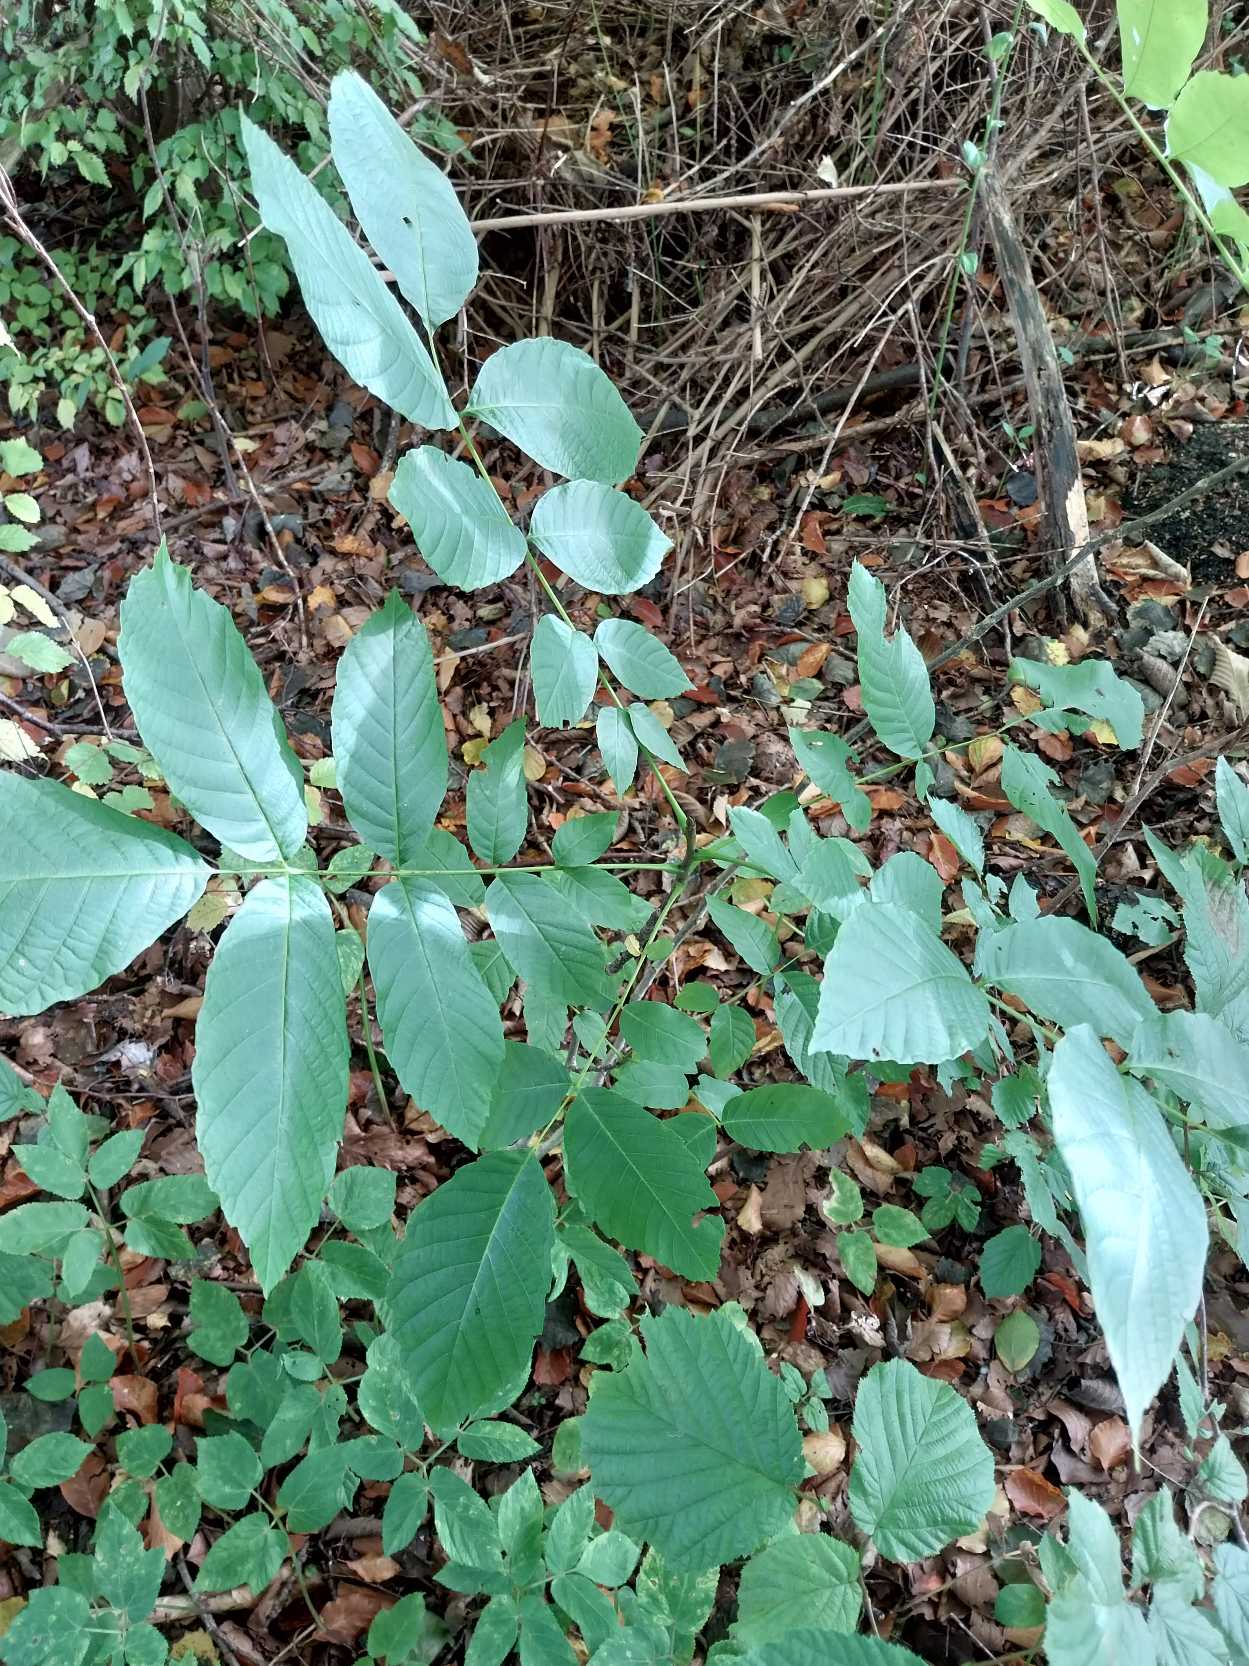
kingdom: Plantae
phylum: Tracheophyta
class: Magnoliopsida
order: Fagales
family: Juglandaceae
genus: Juglans
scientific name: Juglans regia
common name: Almindelig valnød
